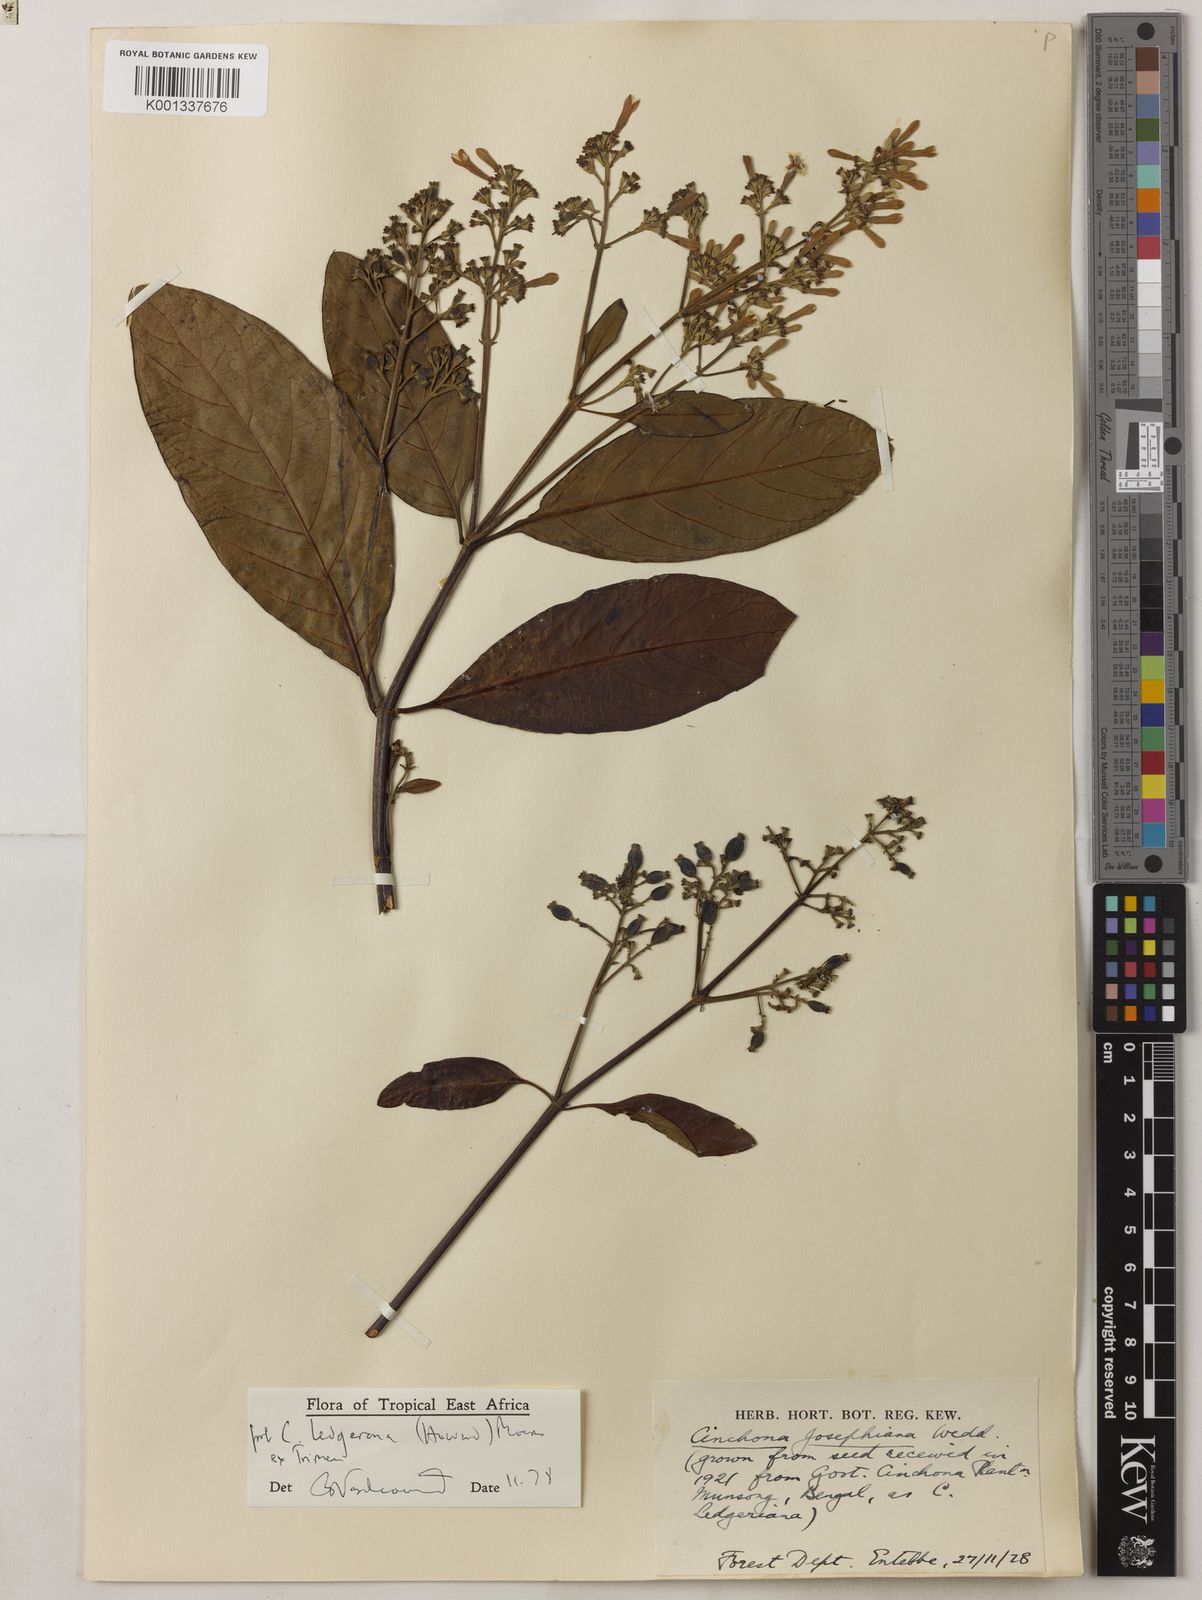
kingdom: Plantae
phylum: Tracheophyta
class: Magnoliopsida
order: Gentianales
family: Rubiaceae
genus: Cinchona
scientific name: Cinchona officinalis
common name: Lojabark
